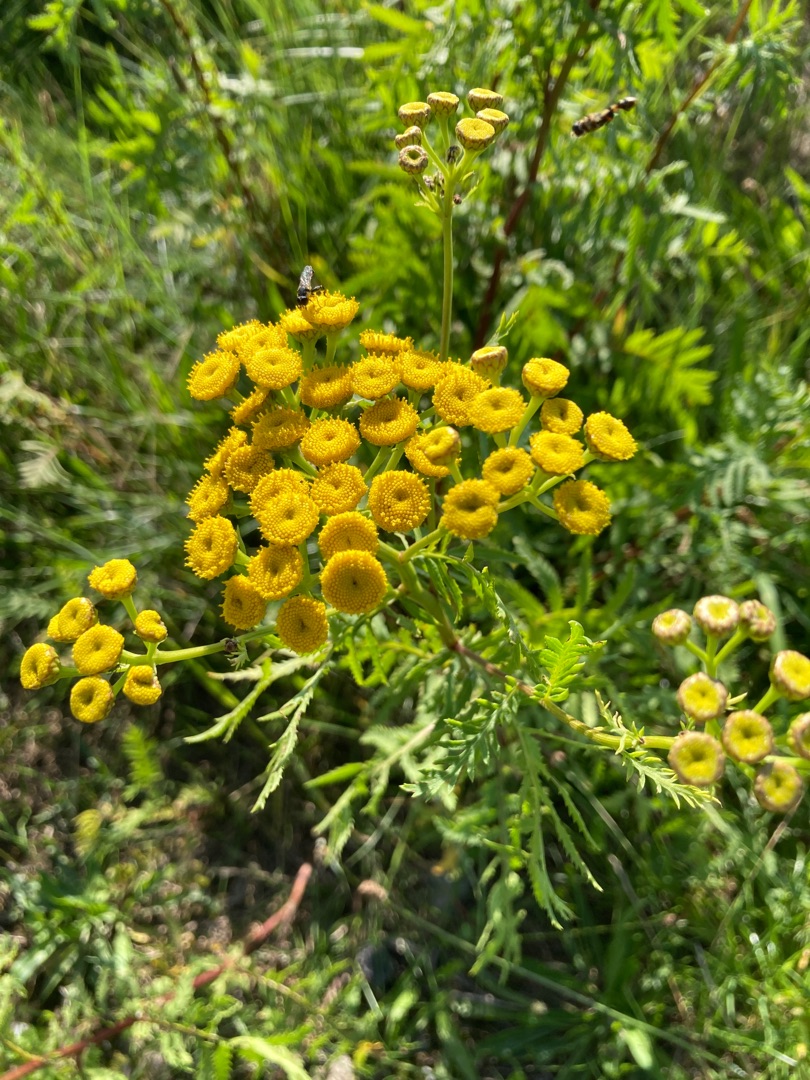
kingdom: Plantae
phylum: Tracheophyta
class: Magnoliopsida
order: Asterales
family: Asteraceae
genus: Tanacetum
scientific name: Tanacetum vulgare
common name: Rejnfan
